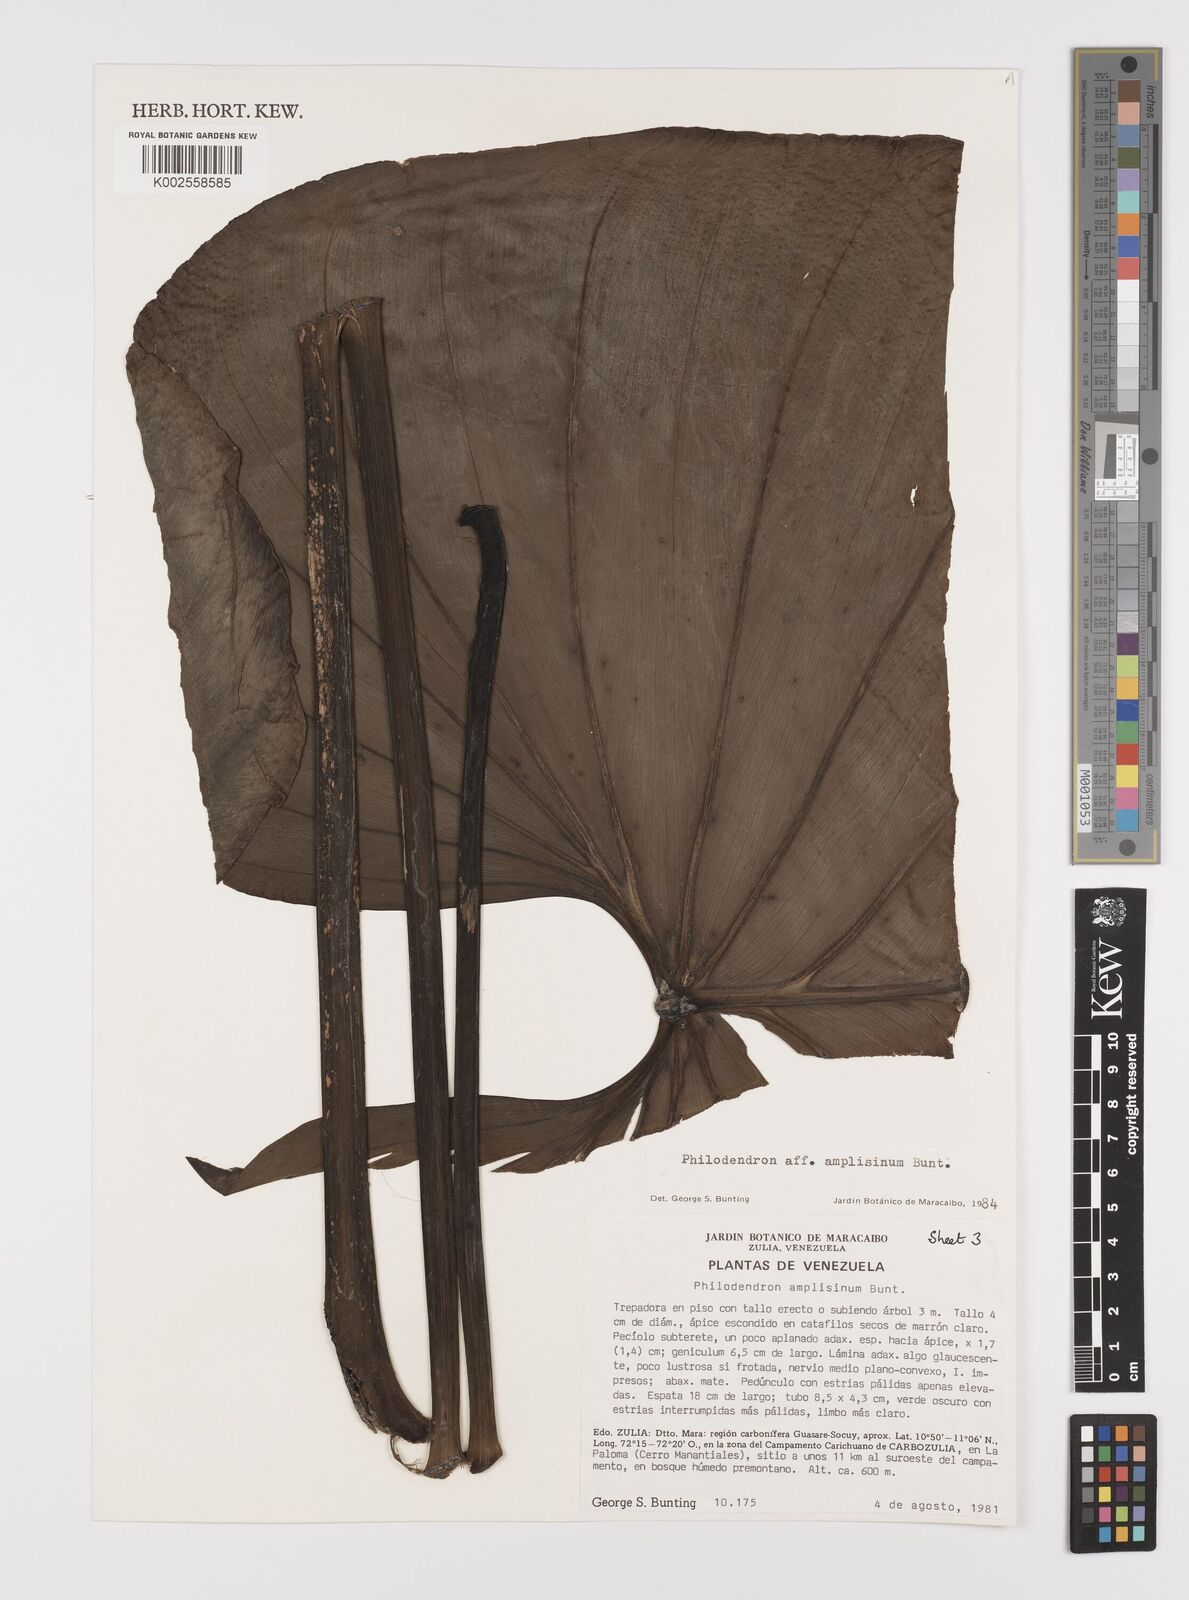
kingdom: Plantae
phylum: Tracheophyta
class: Liliopsida
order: Alismatales
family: Araceae
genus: Philodendron
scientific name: Philodendron amplisinum
